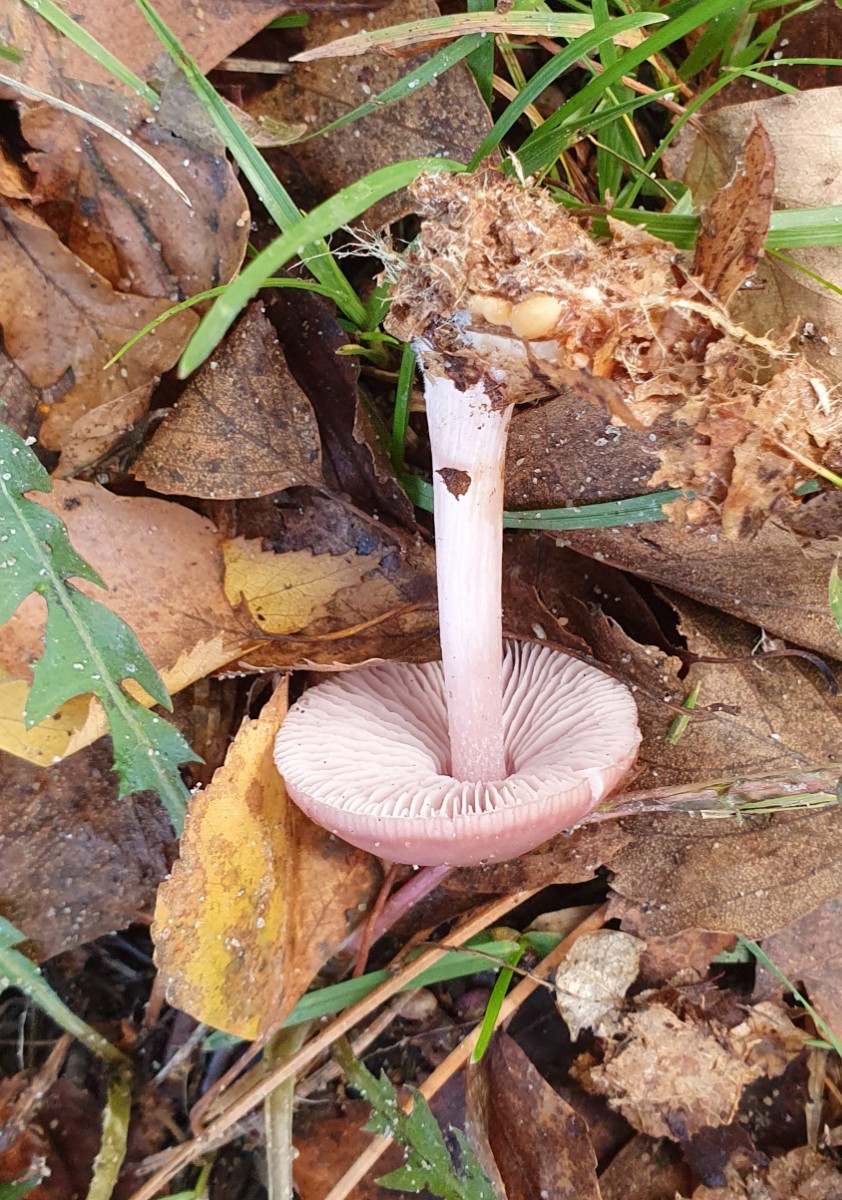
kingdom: Fungi
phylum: Basidiomycota
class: Agaricomycetes
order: Agaricales
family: Mycenaceae
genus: Mycena
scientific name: Mycena rosea
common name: rosa huesvamp
